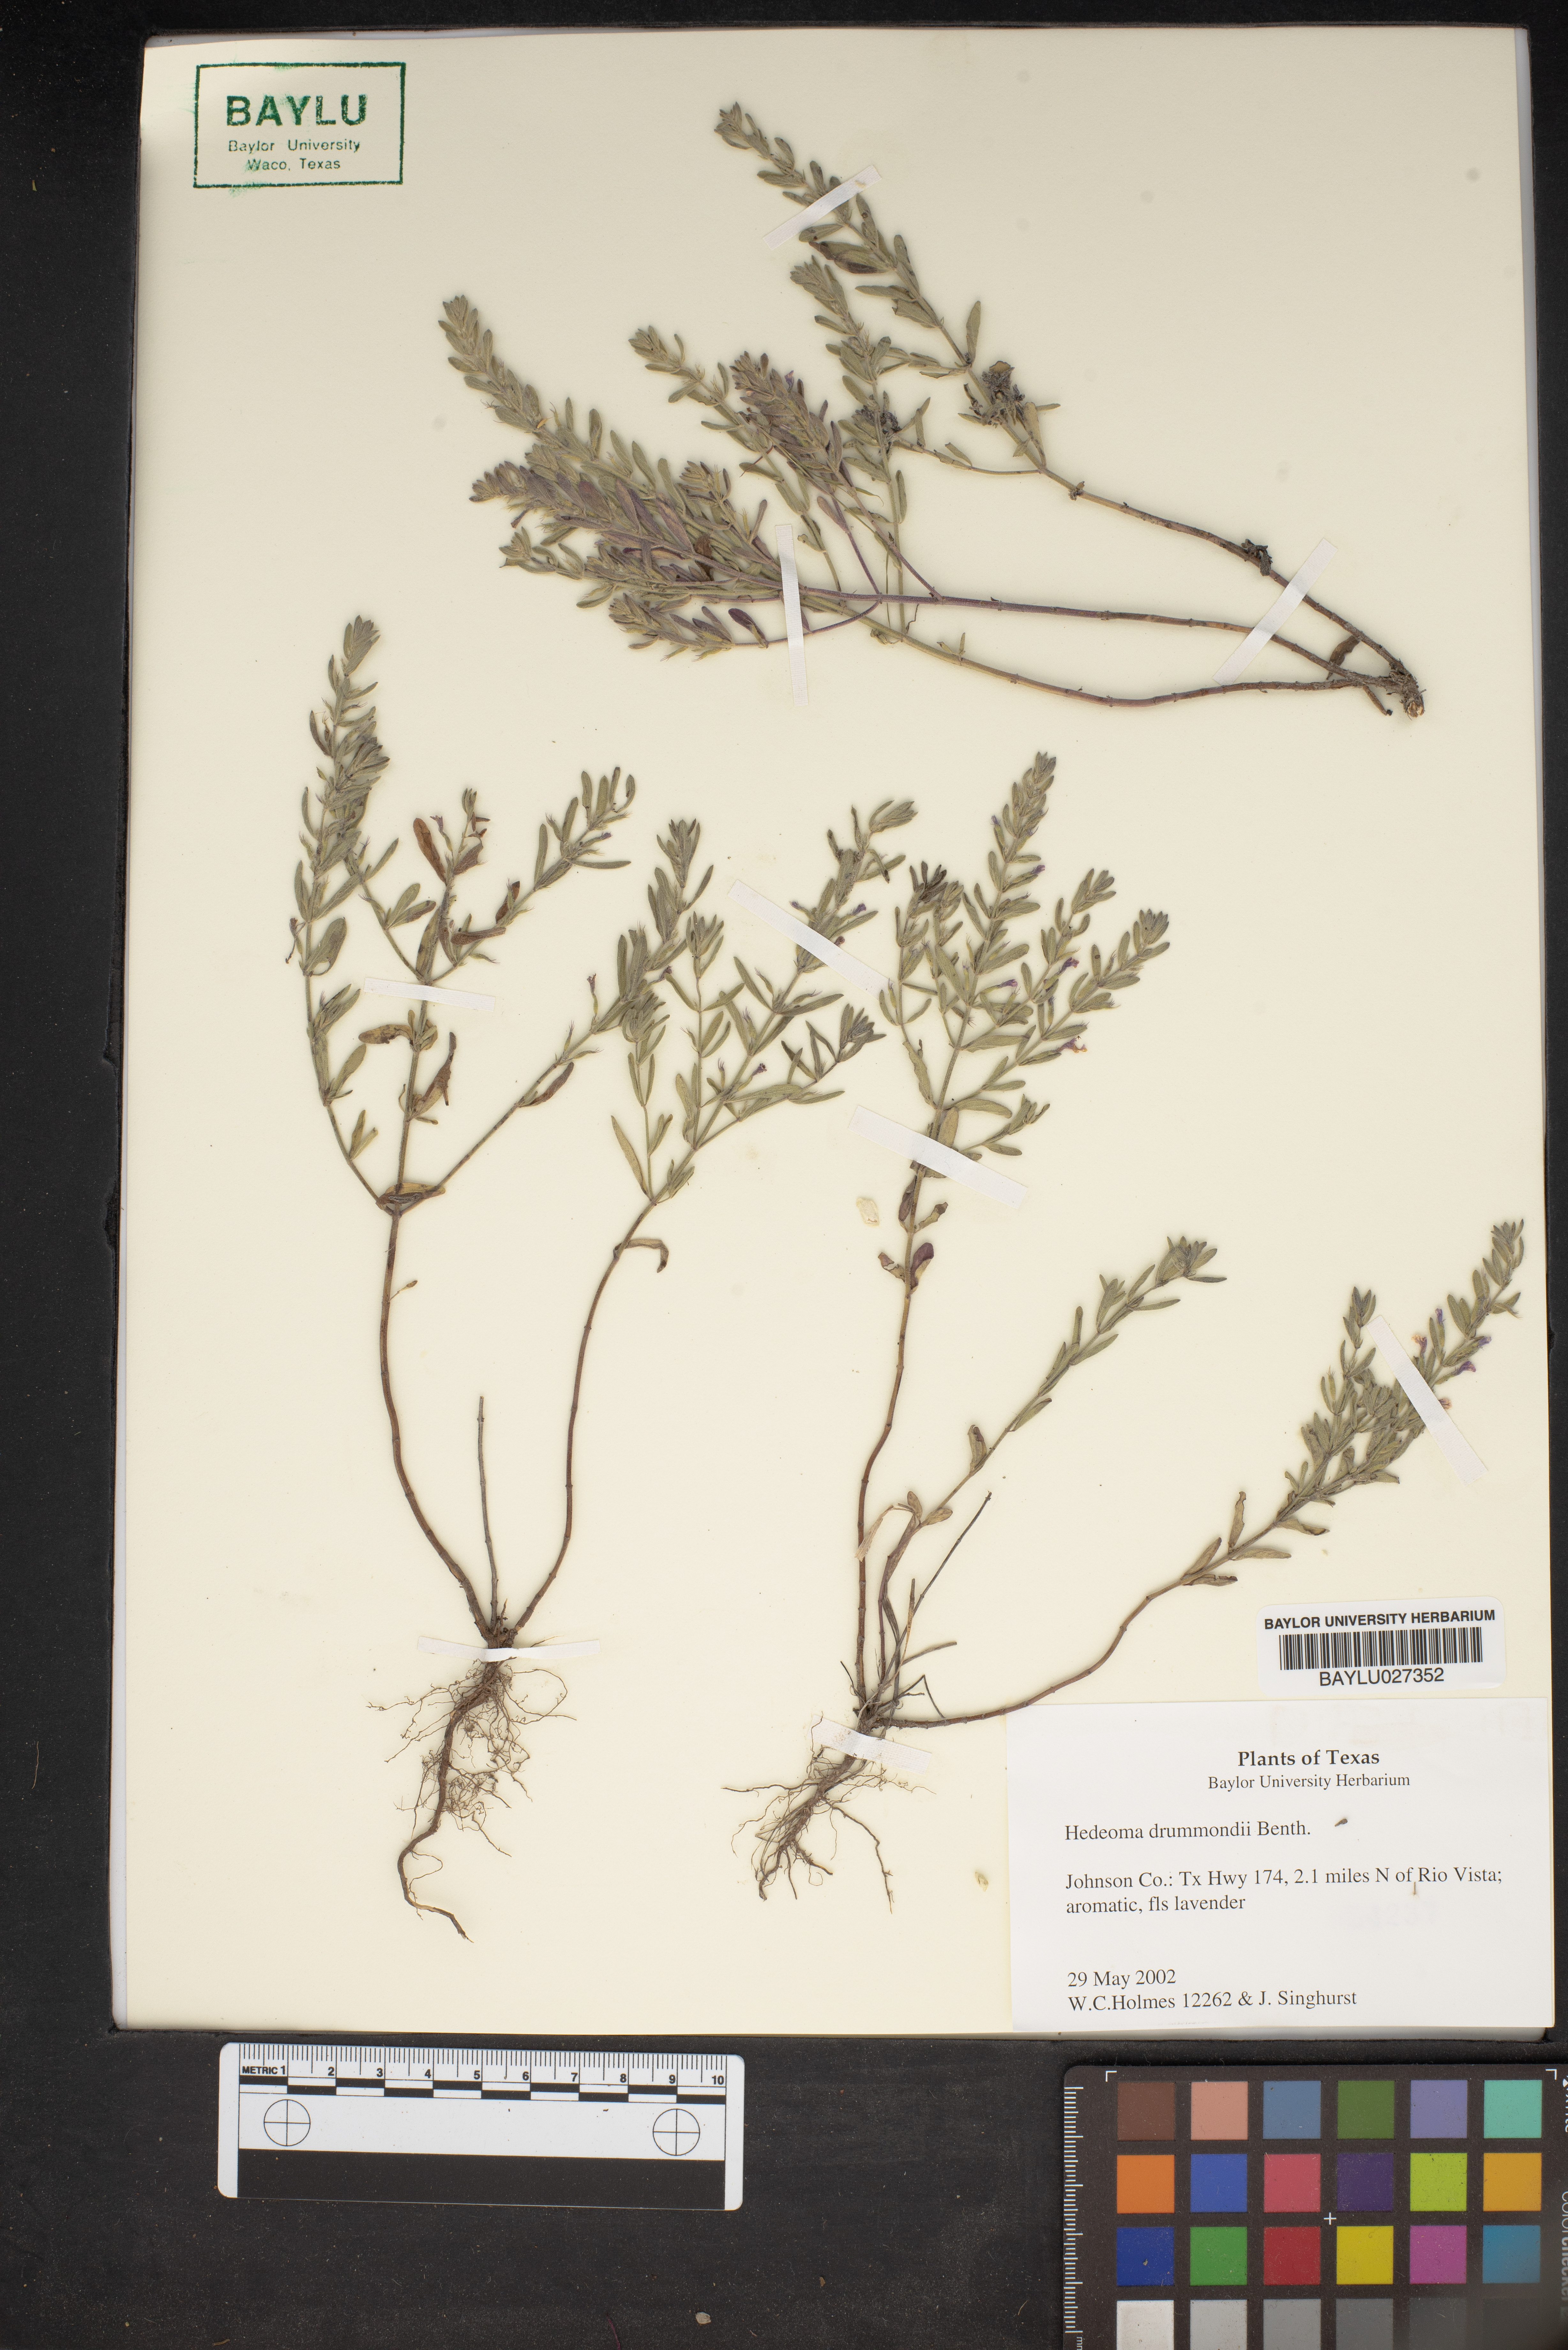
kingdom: Plantae
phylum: Tracheophyta
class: Magnoliopsida
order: Lamiales
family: Lamiaceae
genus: Hedeoma
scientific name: Hedeoma drummondii
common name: New mexico pennyroyal
